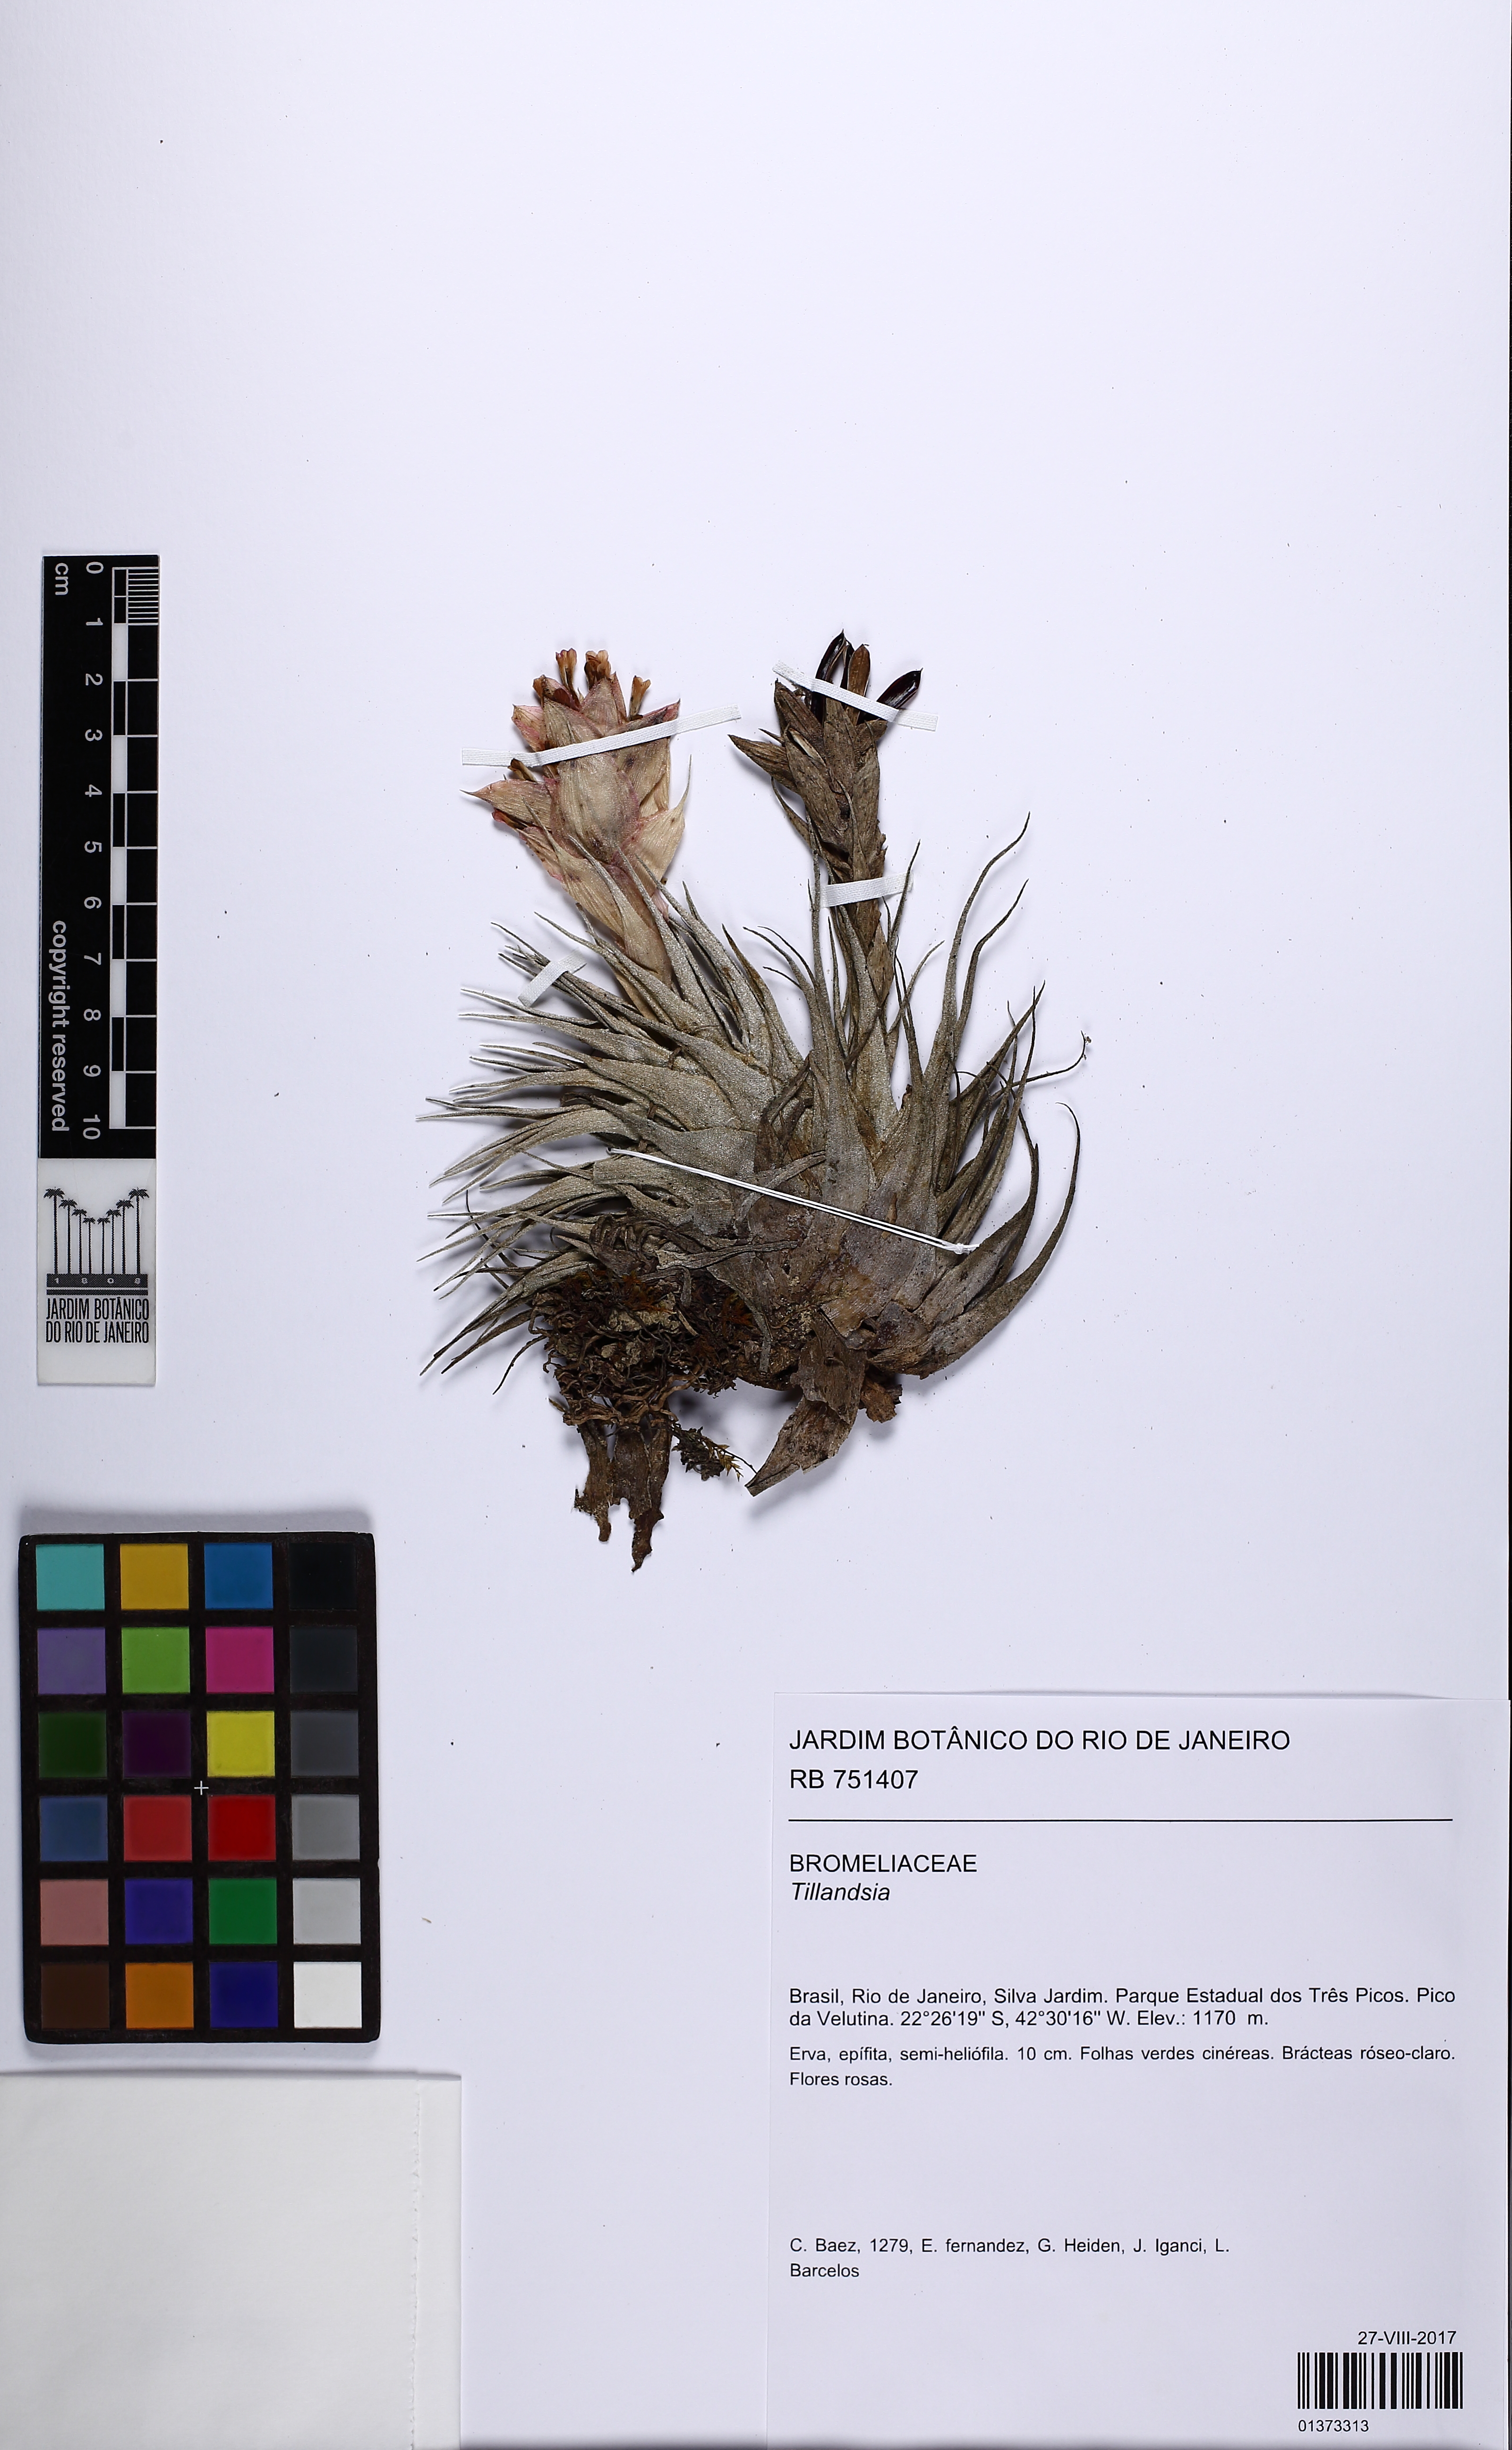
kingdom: Plantae
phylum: Tracheophyta
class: Liliopsida
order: Poales
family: Bromeliaceae
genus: Tillandsia
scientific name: Tillandsia
